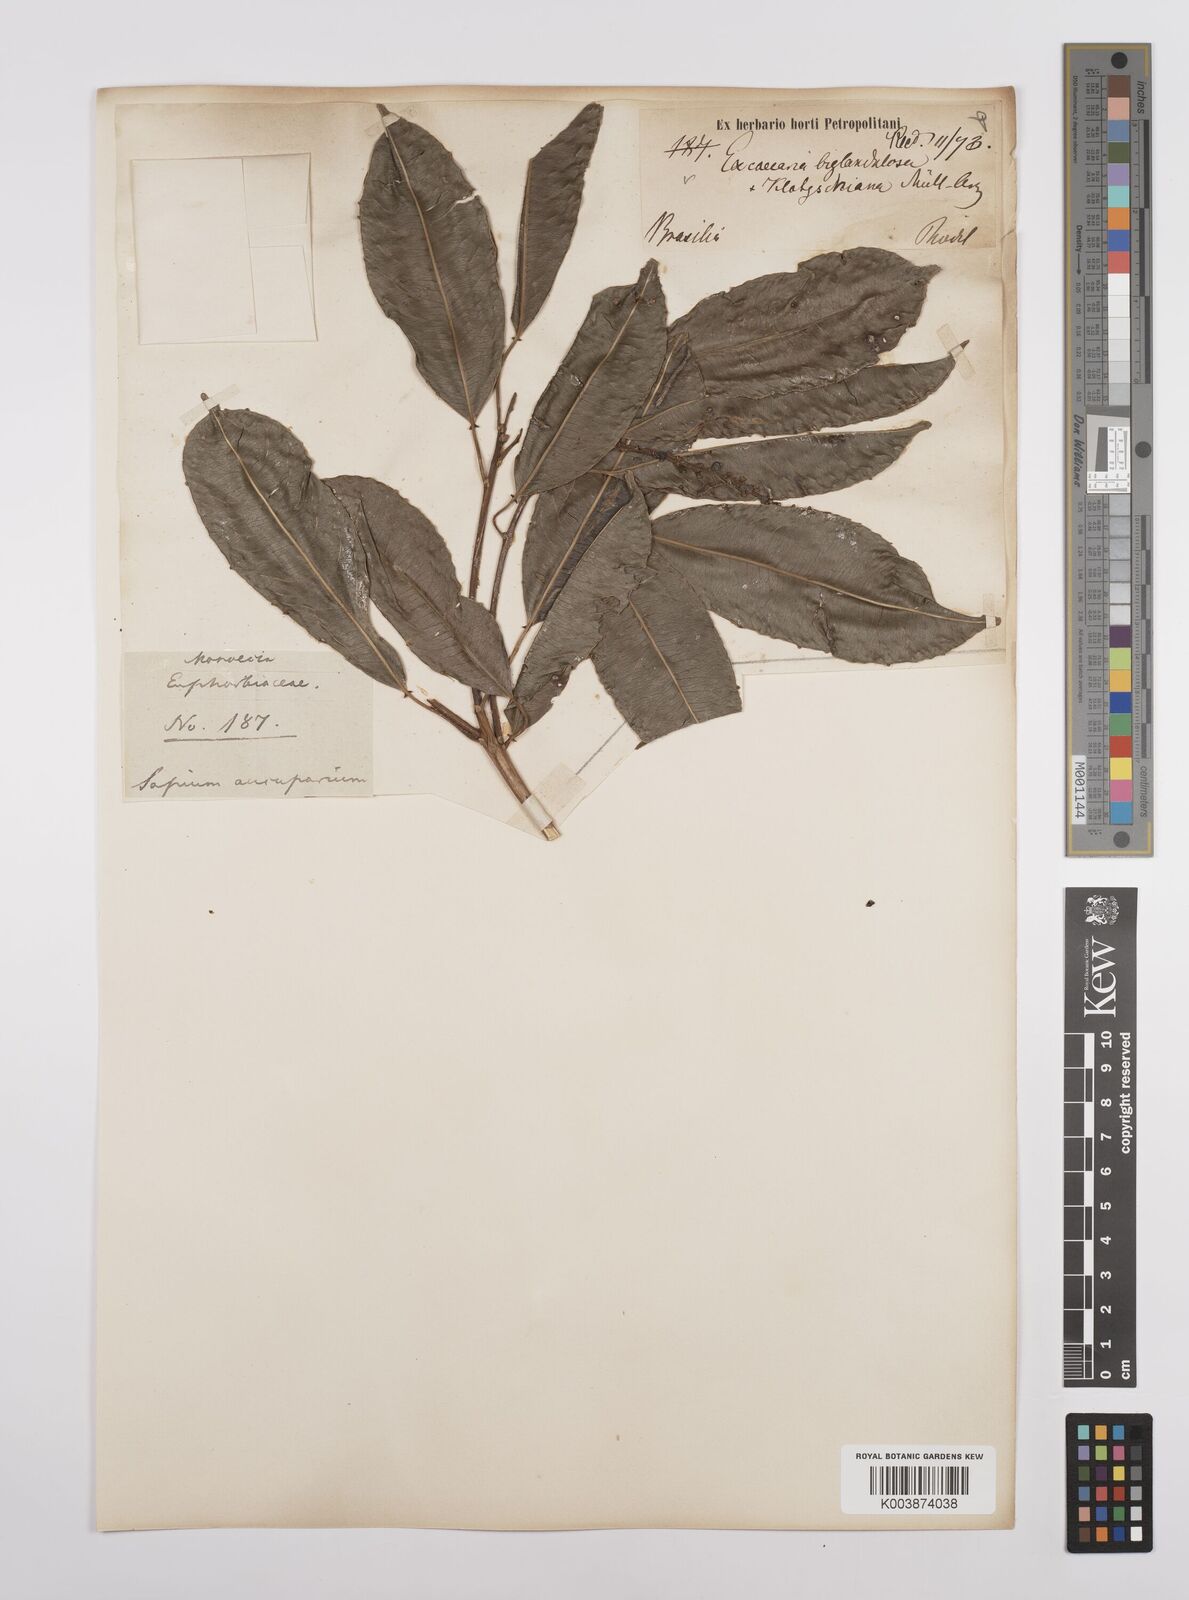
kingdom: Plantae
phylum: Tracheophyta
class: Magnoliopsida
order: Malpighiales
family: Euphorbiaceae
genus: Sapium
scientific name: Sapium glandulosum
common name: Milktree
